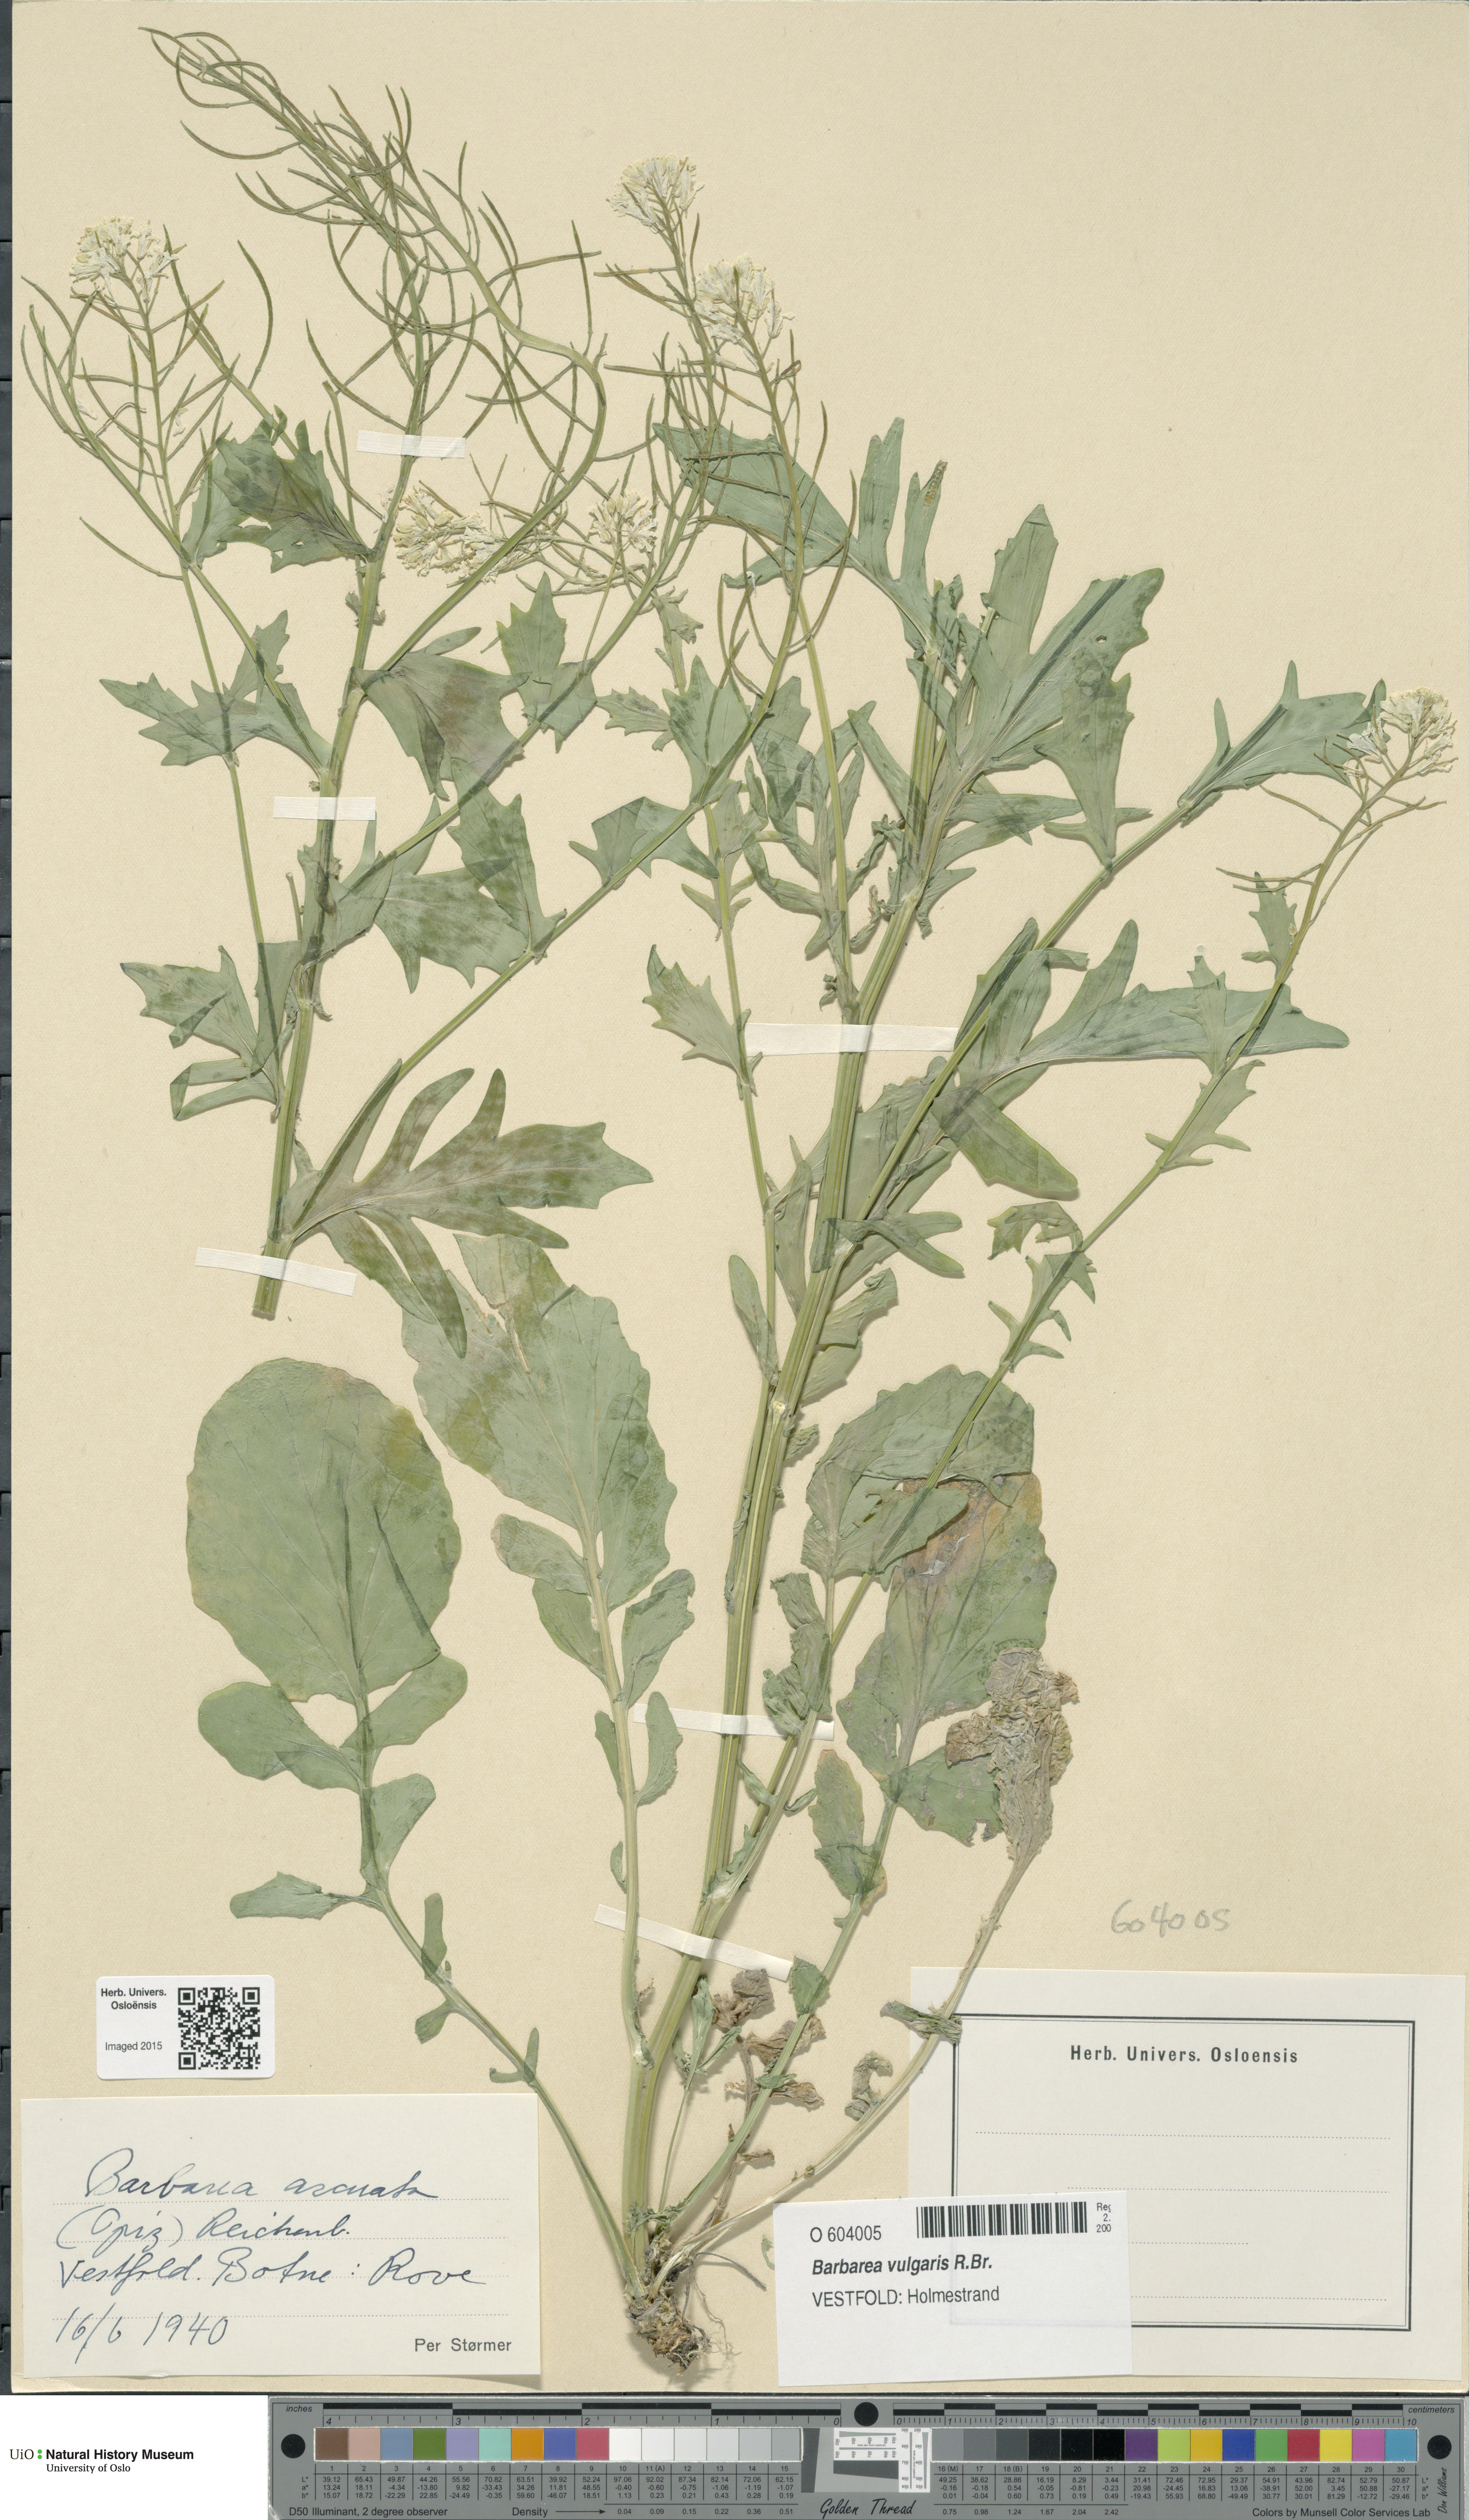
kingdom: Plantae
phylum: Tracheophyta
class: Magnoliopsida
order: Brassicales
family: Brassicaceae
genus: Barbarea
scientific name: Barbarea vulgaris
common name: Cressy-greens
